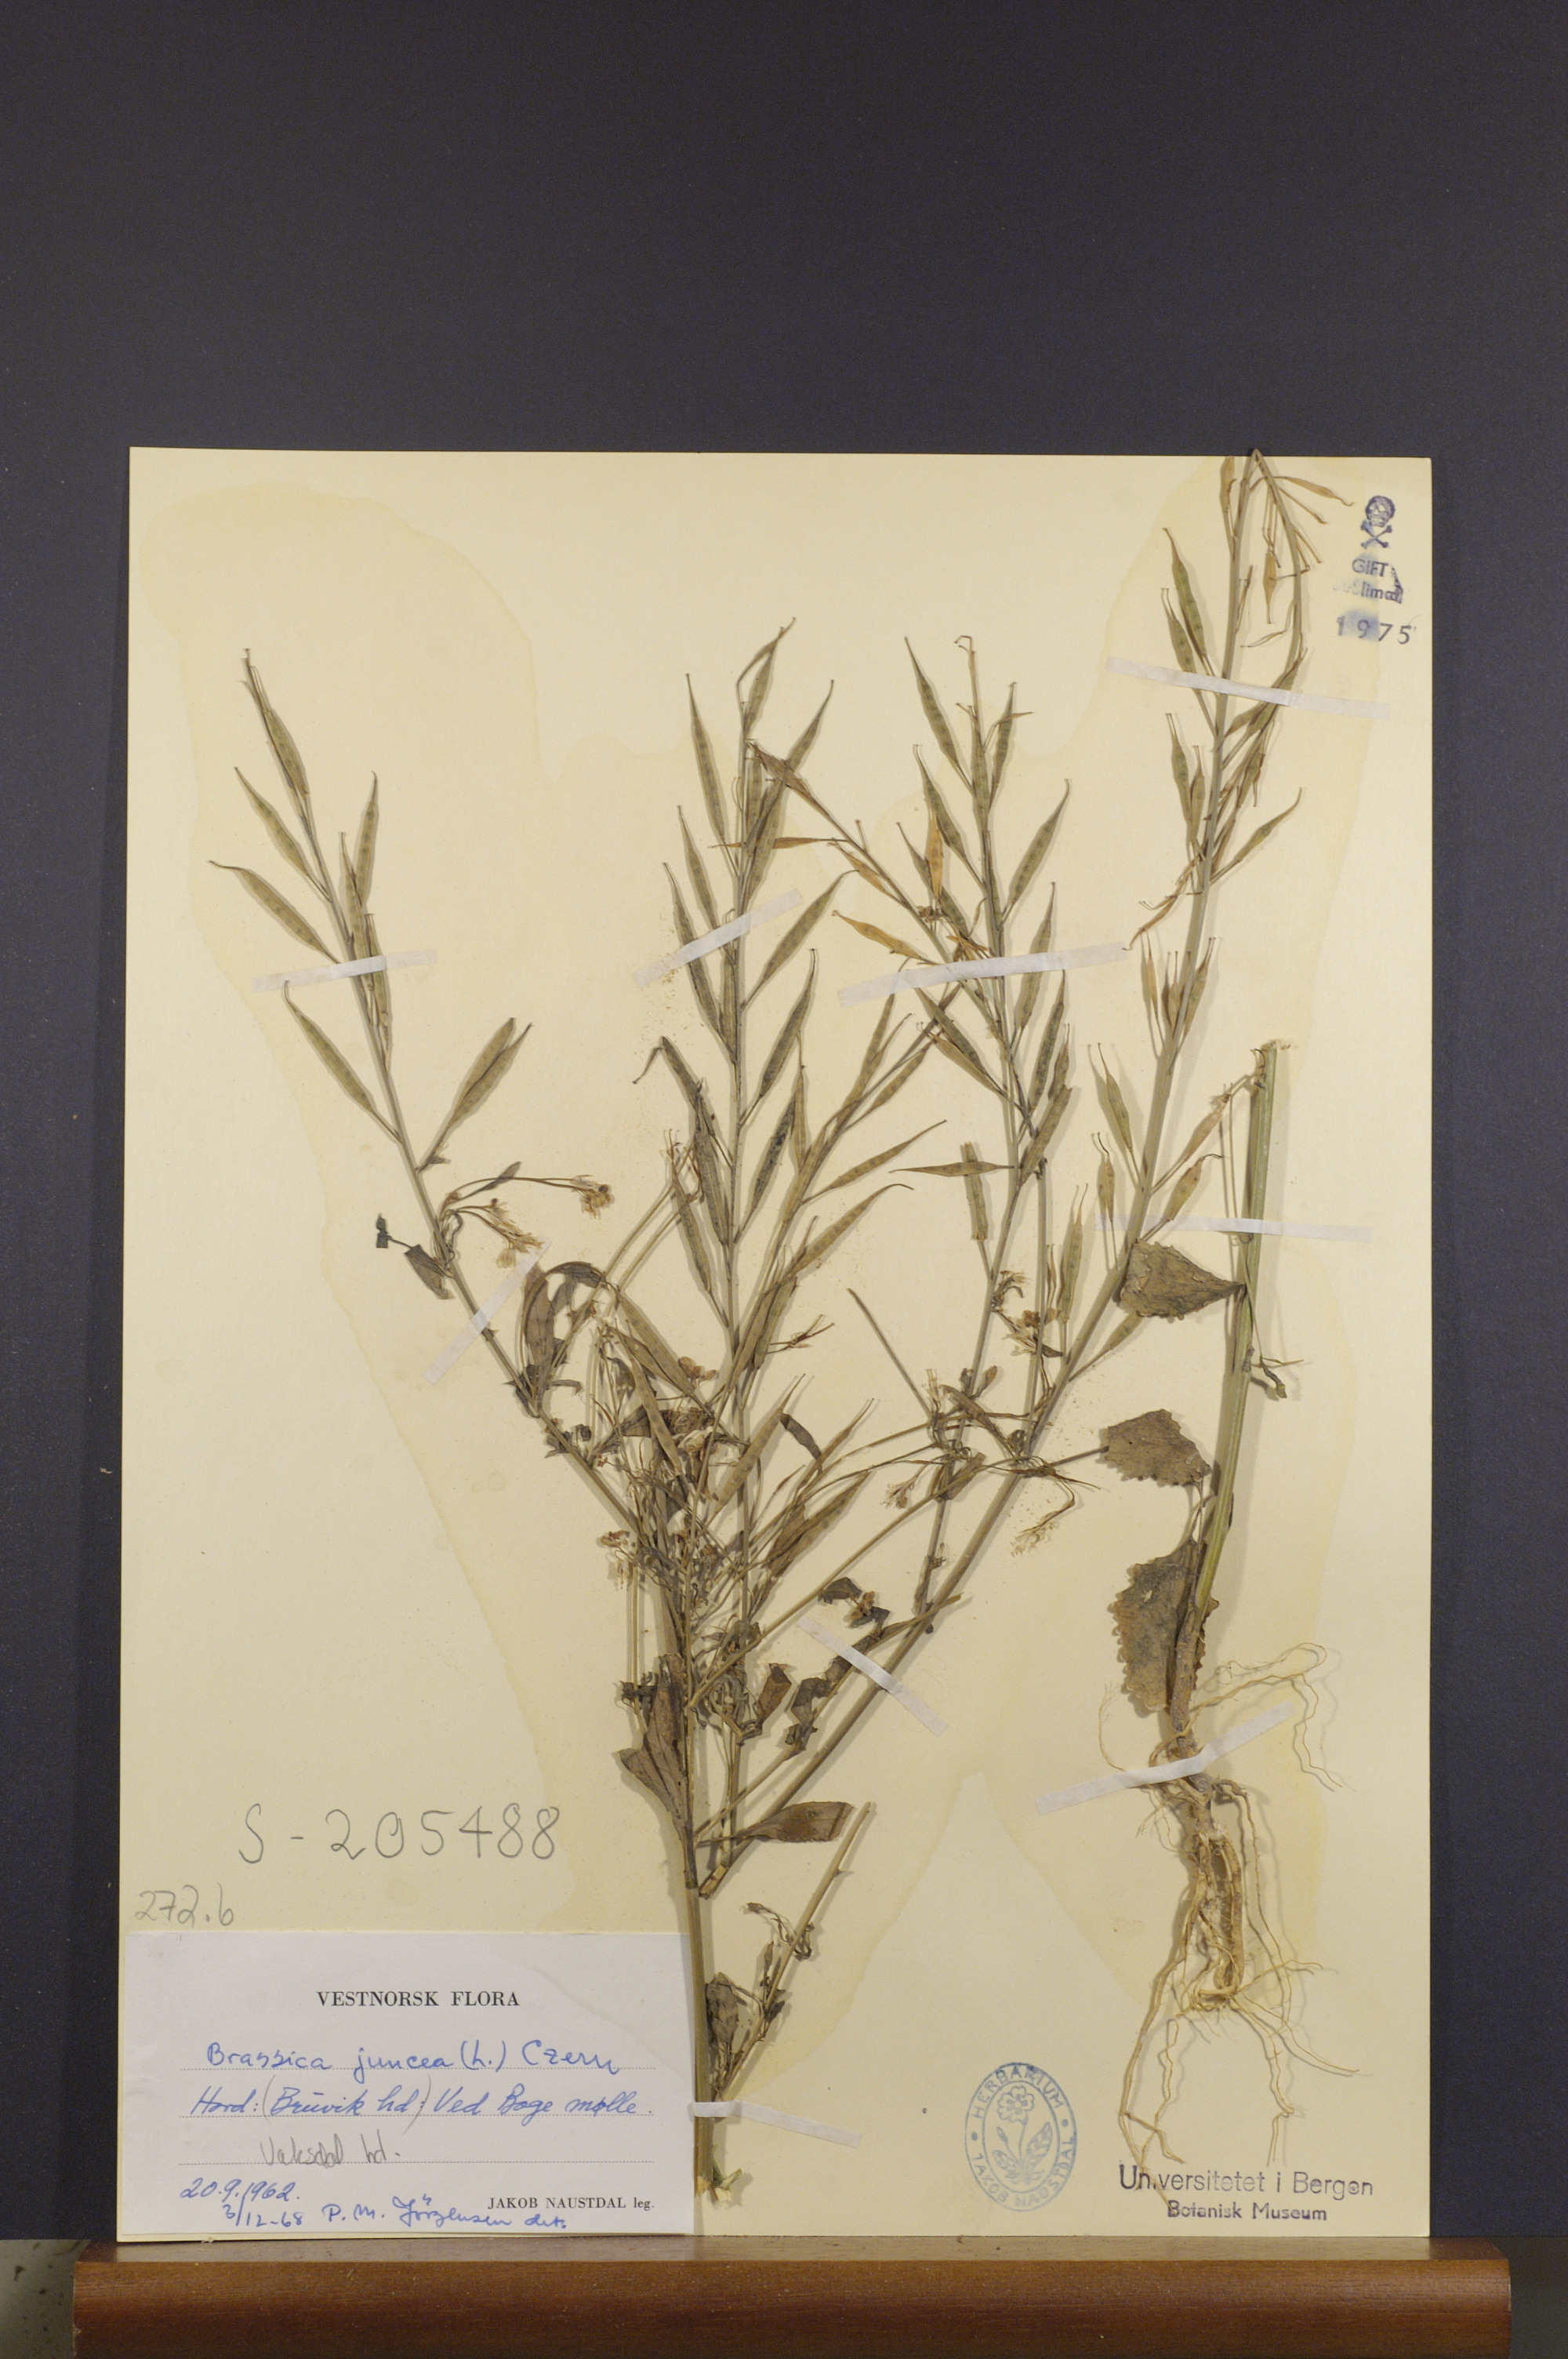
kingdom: Plantae
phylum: Tracheophyta
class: Magnoliopsida
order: Brassicales
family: Brassicaceae
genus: Brassica
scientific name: Brassica juncea
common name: Brown mustard
